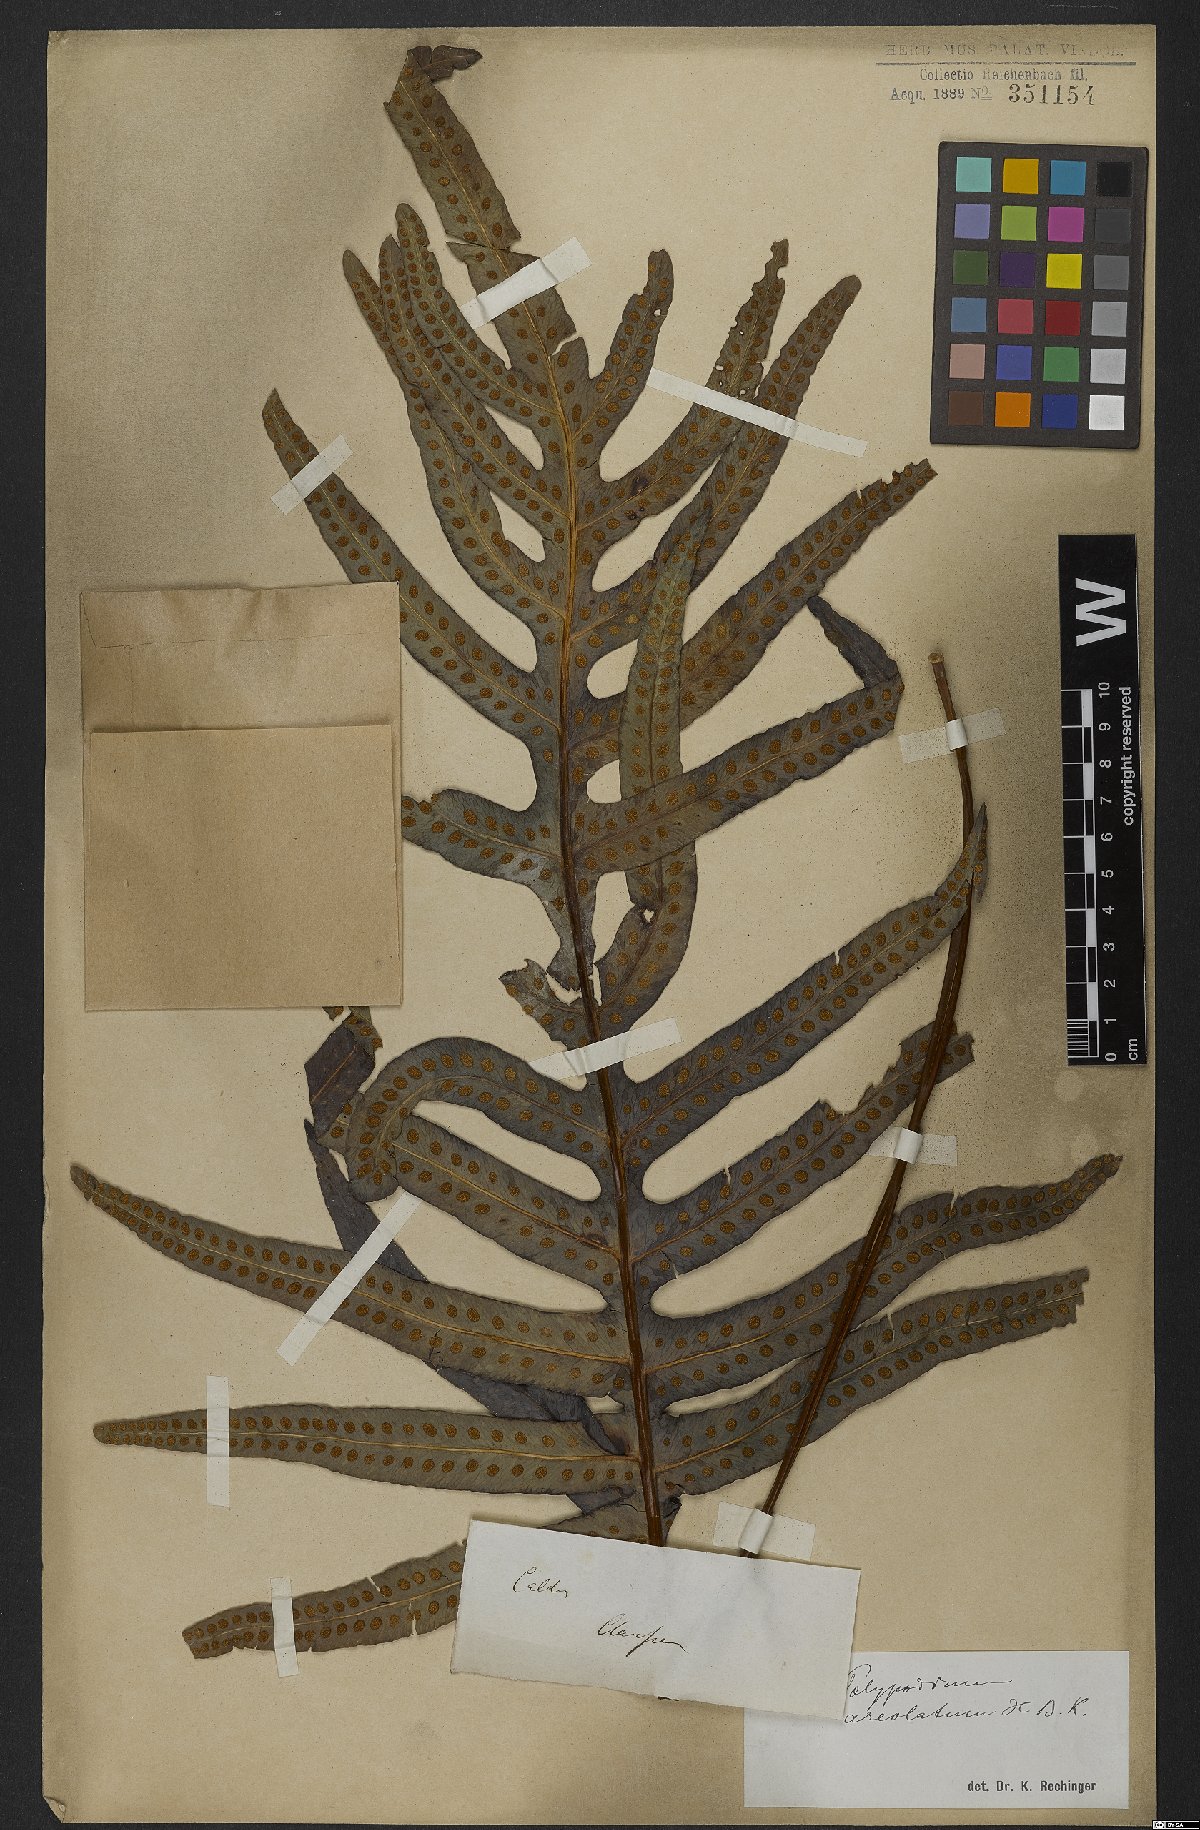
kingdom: Plantae
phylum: Tracheophyta
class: Polypodiopsida
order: Polypodiales
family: Polypodiaceae
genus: Phlebodium
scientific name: Phlebodium aureum
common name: Gold-foot fern
